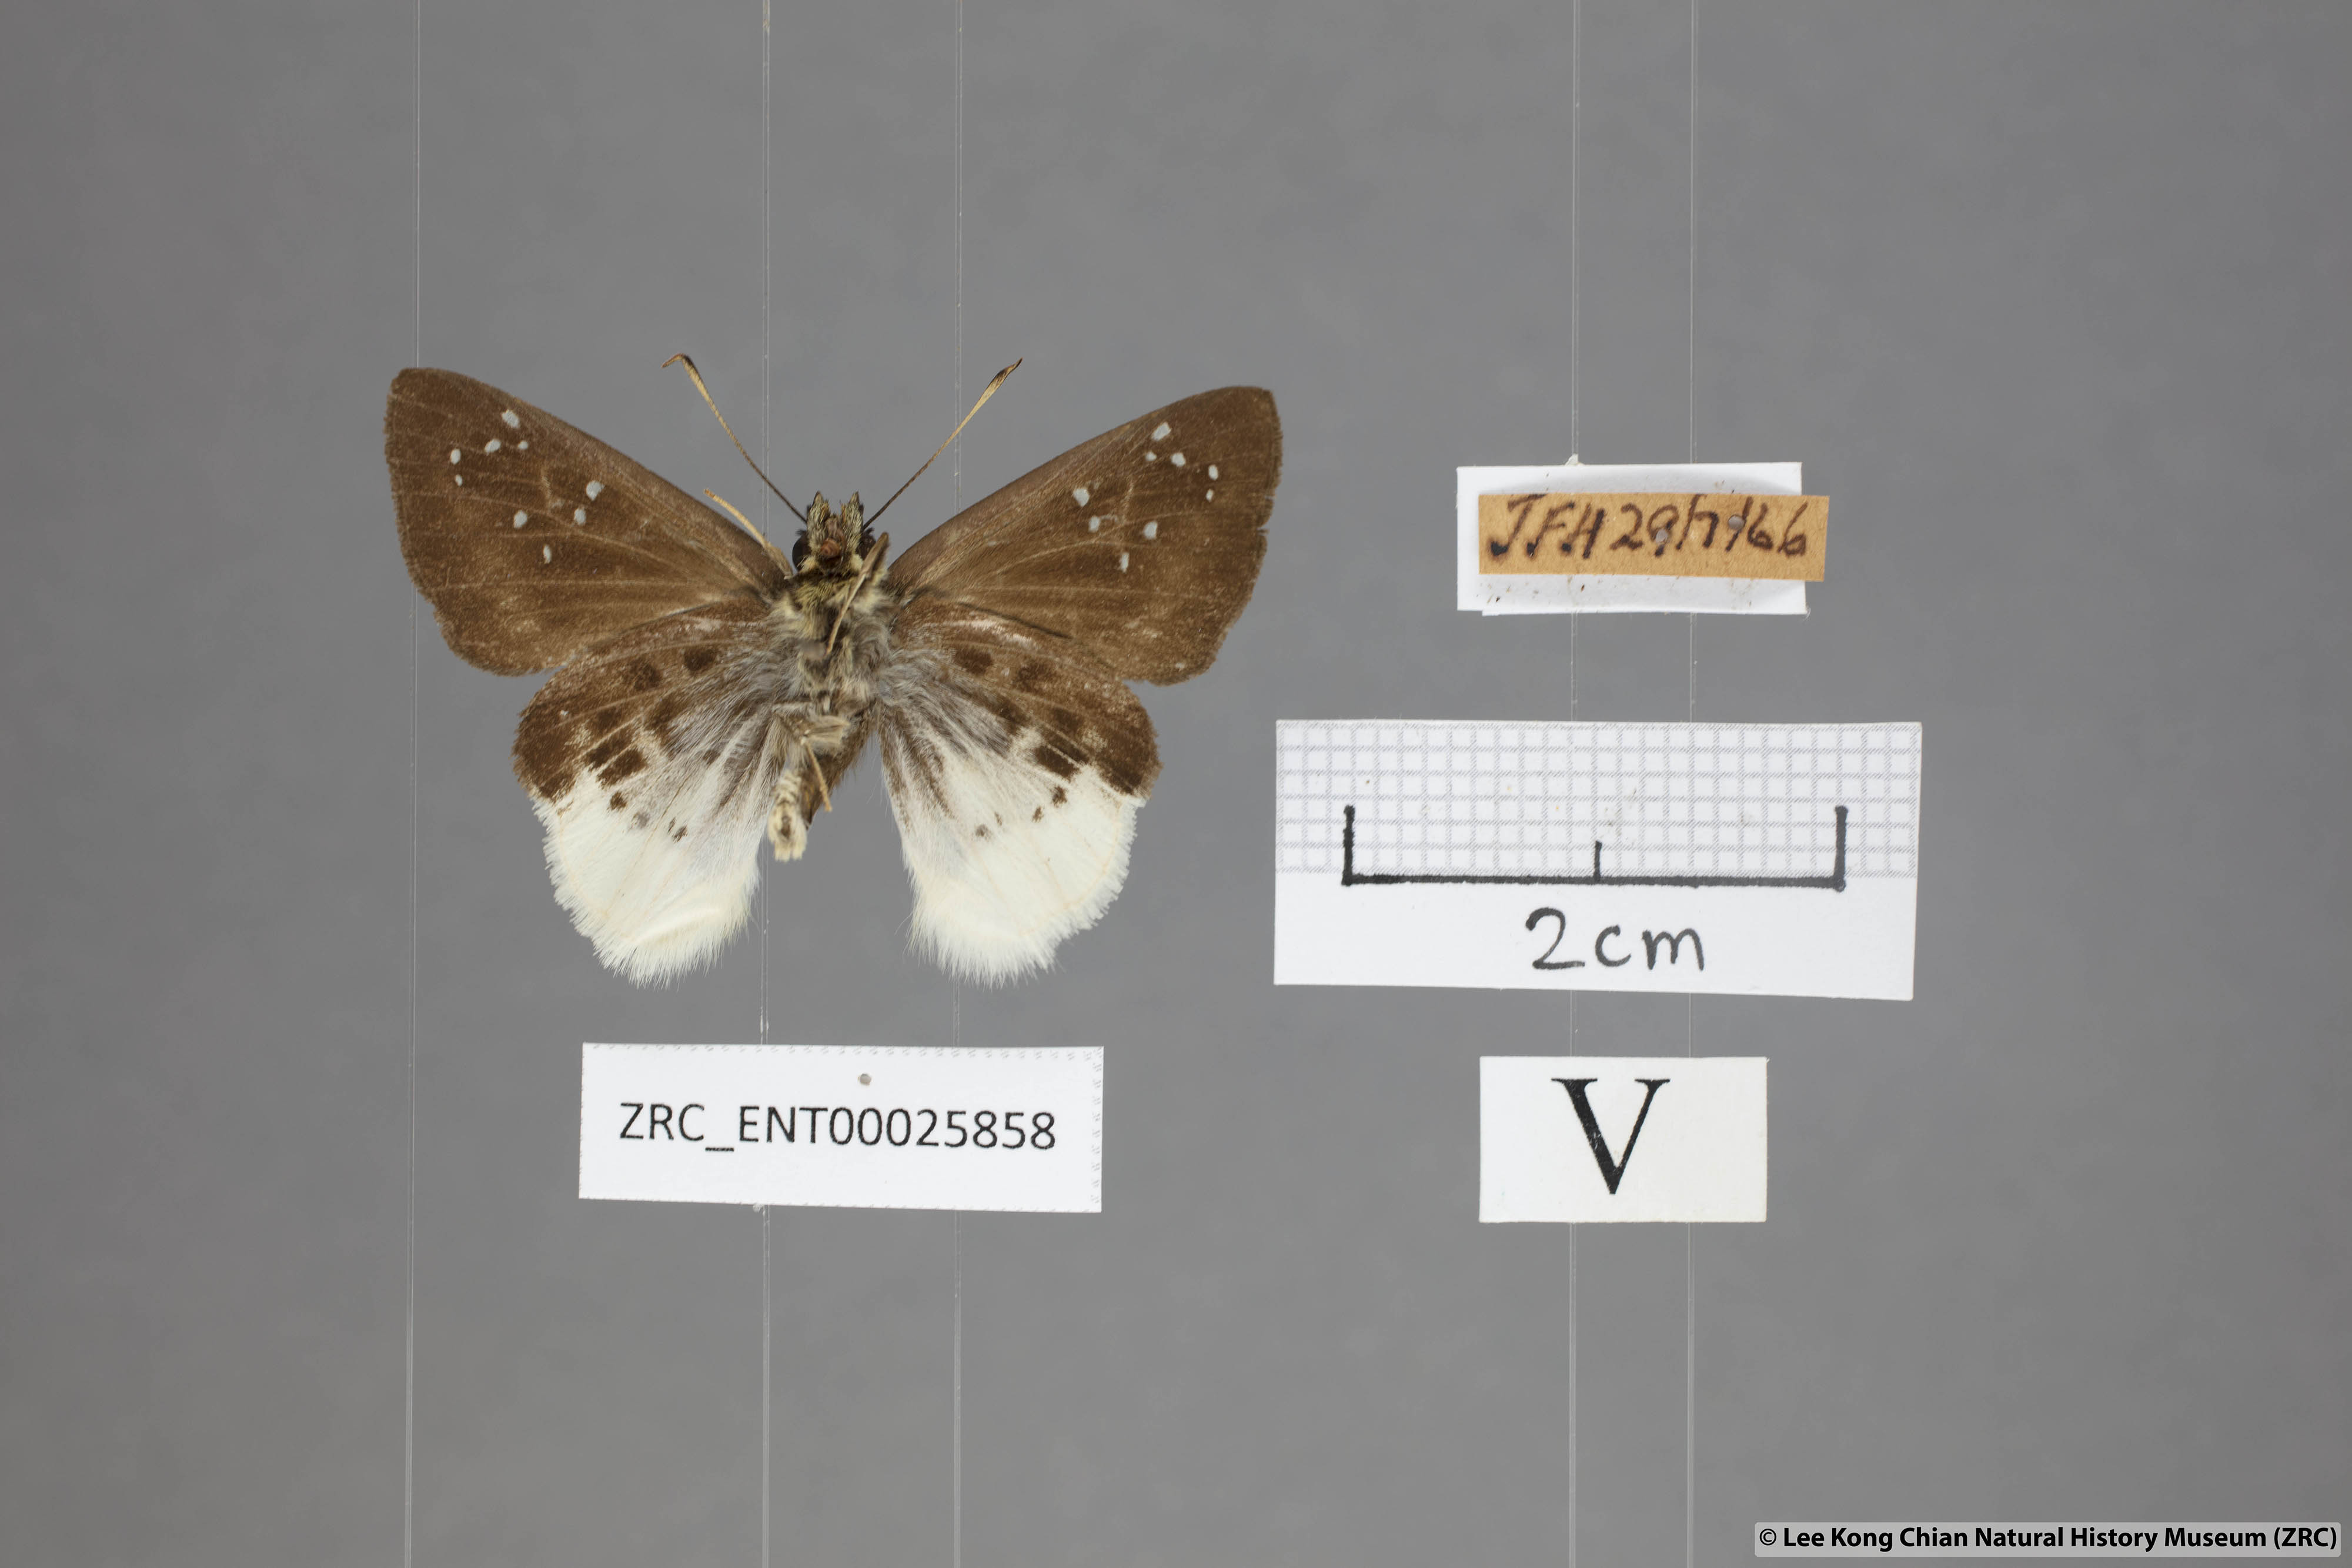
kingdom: Animalia
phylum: Arthropoda
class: Insecta
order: Lepidoptera
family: Hesperiidae
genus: Darpa
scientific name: Darpa pterica
